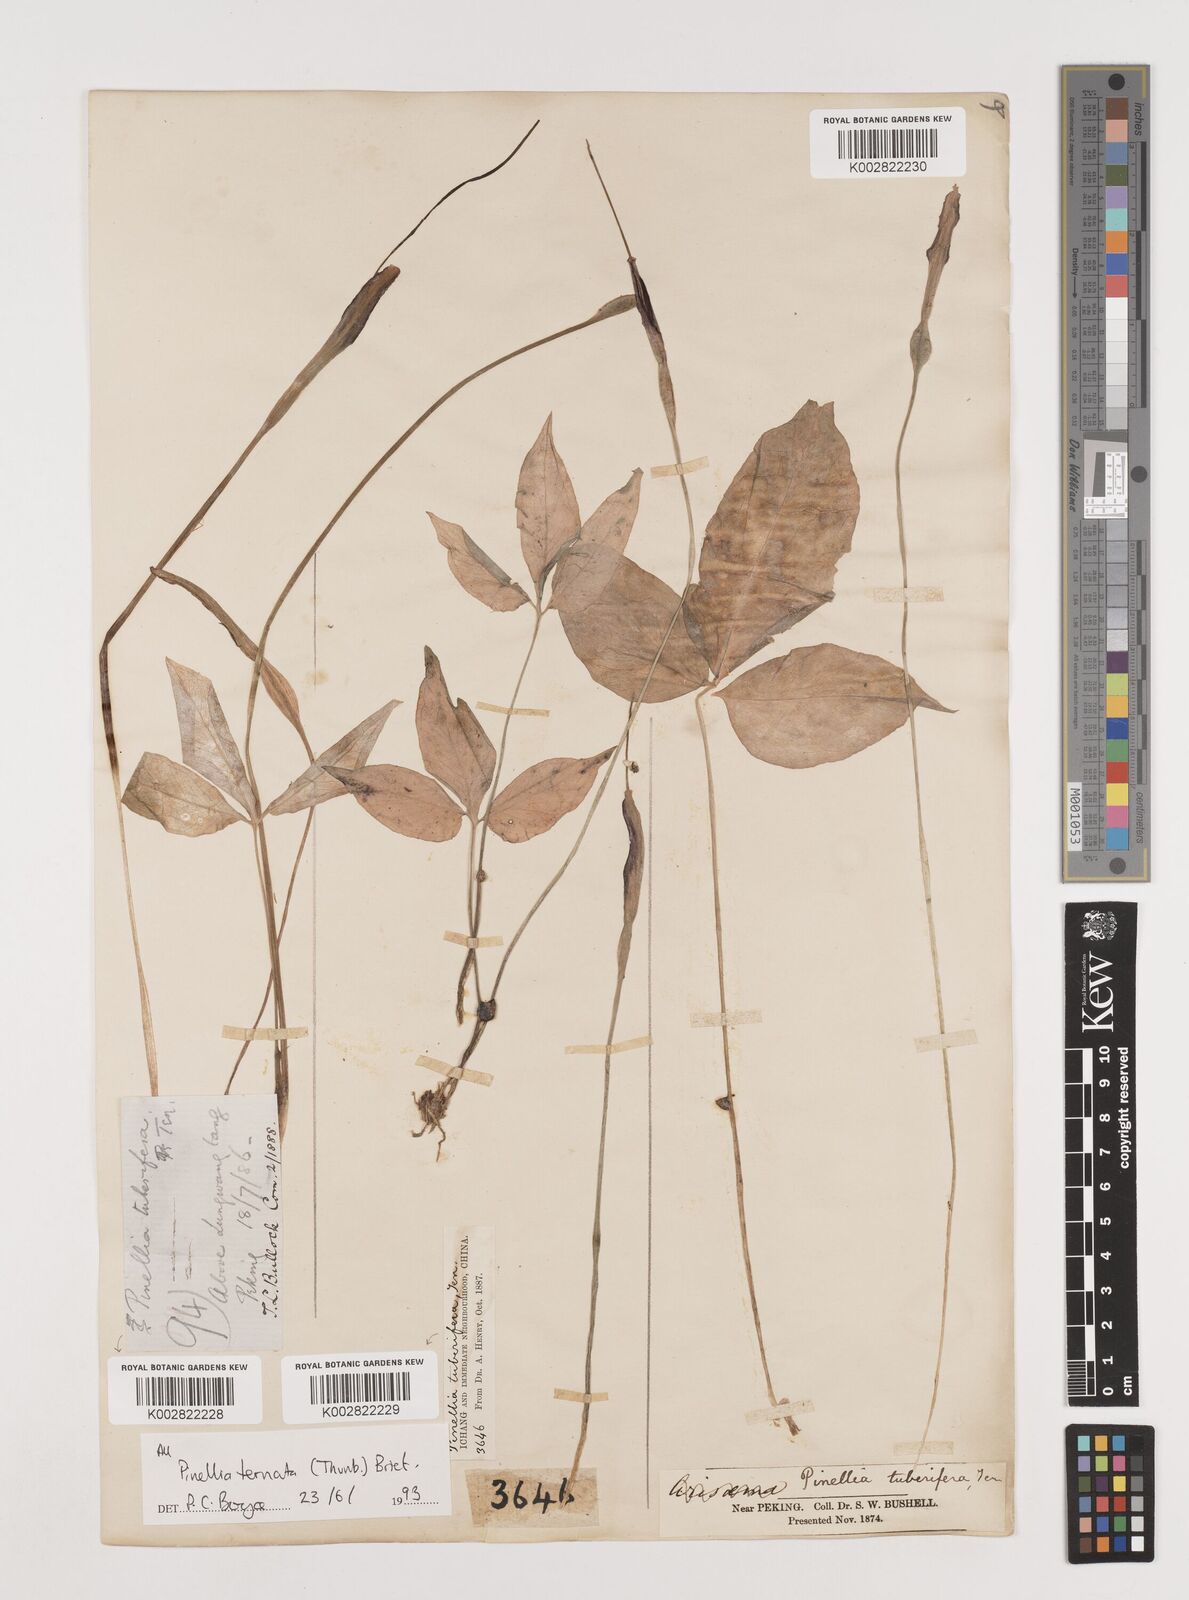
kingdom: Plantae
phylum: Tracheophyta
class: Liliopsida
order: Alismatales
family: Araceae
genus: Pinellia
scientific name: Pinellia ternata
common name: Pinellia
